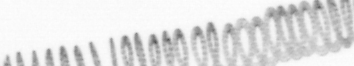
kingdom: Chromista
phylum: Ochrophyta
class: Bacillariophyceae
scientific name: Bacillariophyceae
